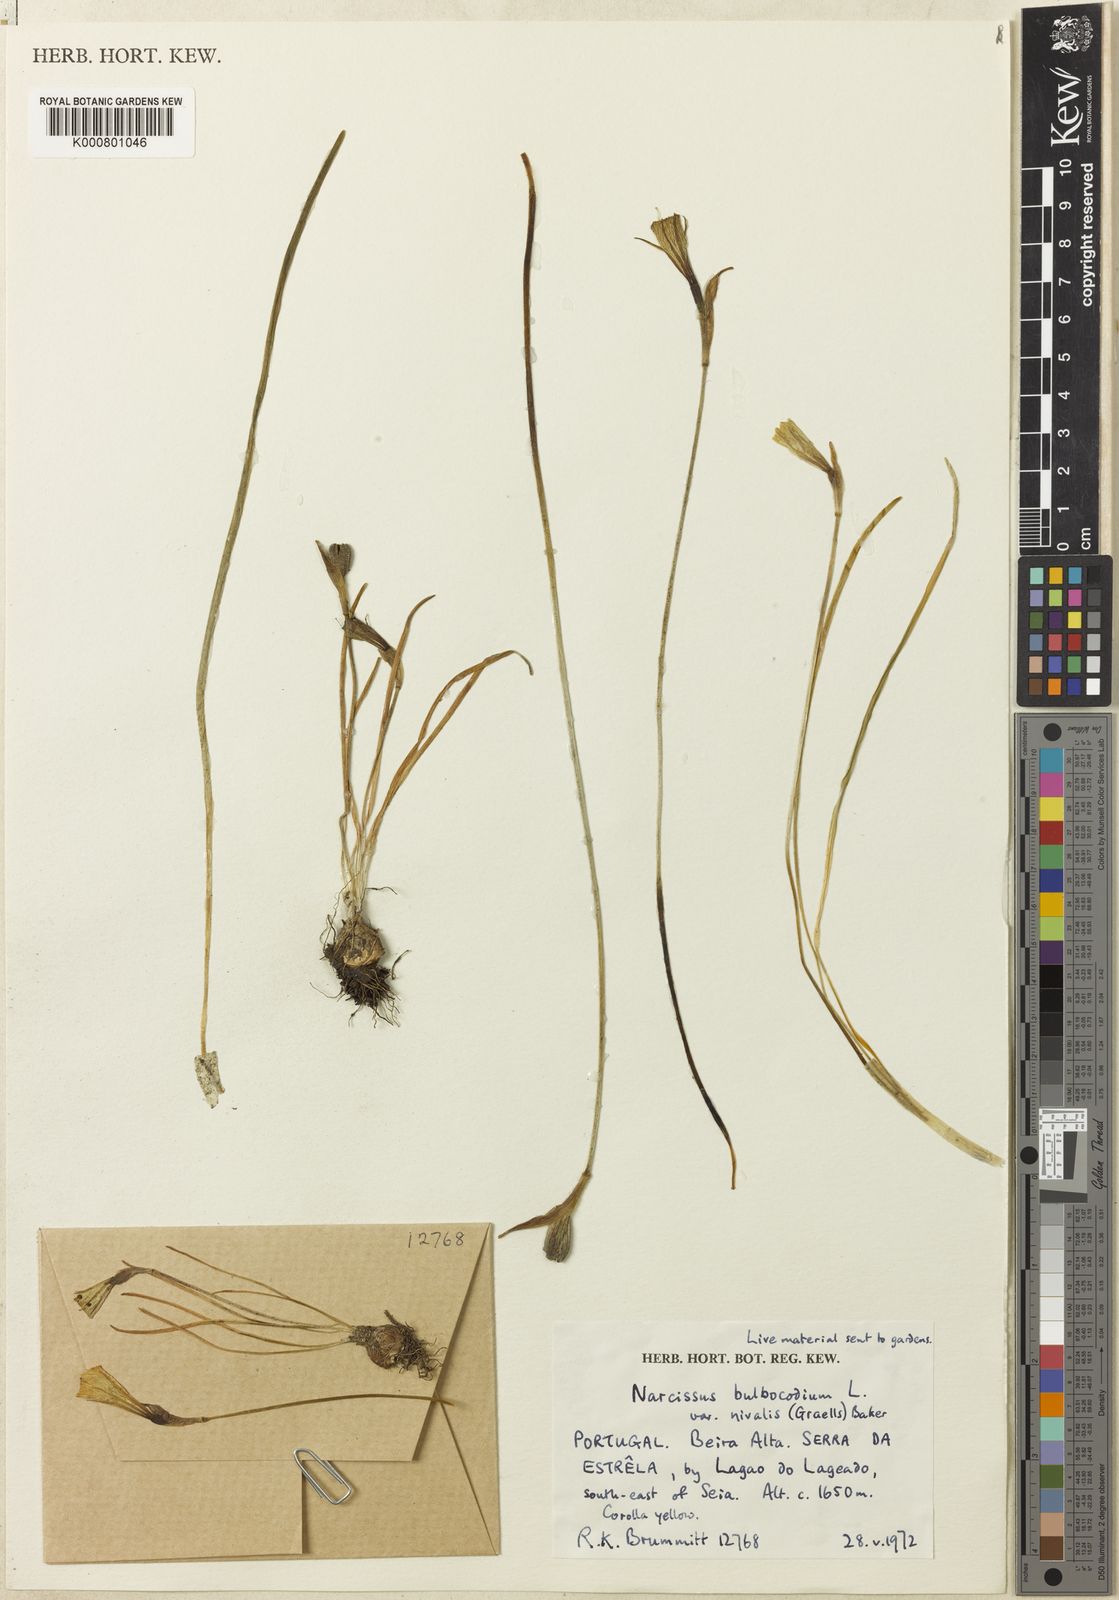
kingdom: Plantae
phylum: Tracheophyta
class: Liliopsida
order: Asparagales
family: Amaryllidaceae
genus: Narcissus
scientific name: Narcissus bulbocodium
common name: Hoop-petticoat daffodil
